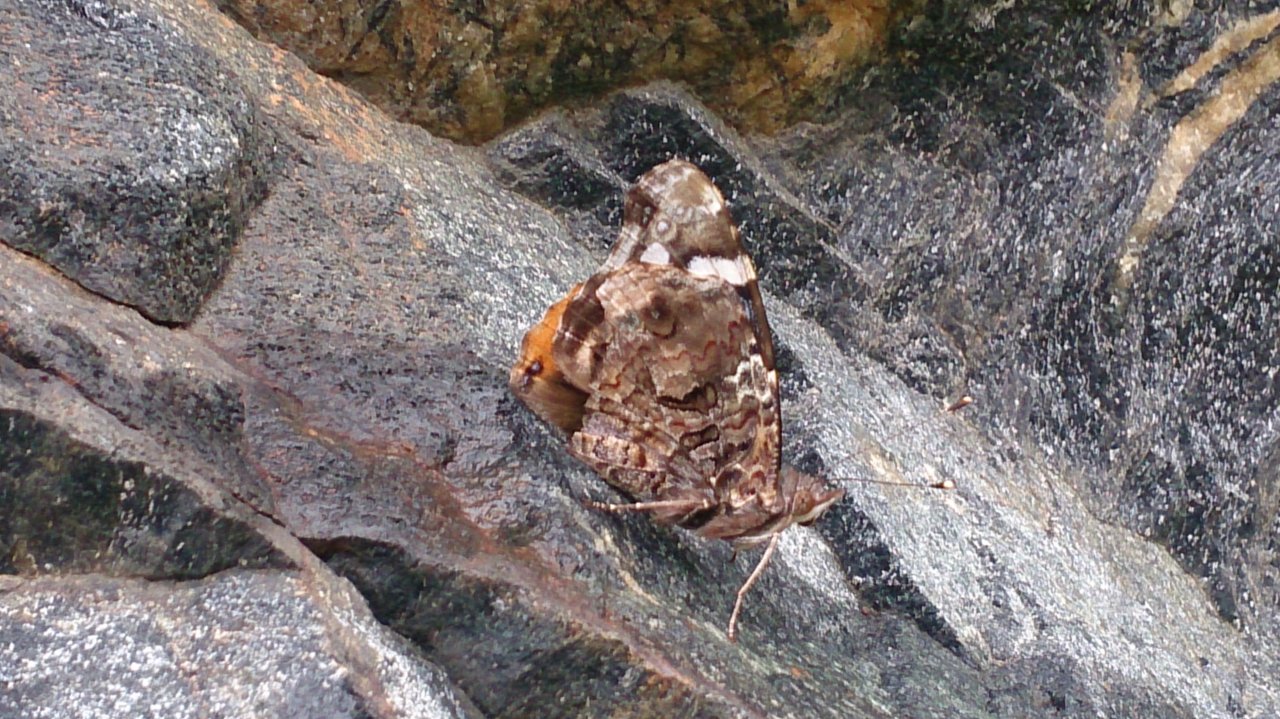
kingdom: Animalia
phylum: Arthropoda
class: Insecta
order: Lepidoptera
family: Nymphalidae
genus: Vanessa
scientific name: Vanessa atalanta
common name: Red Admiral
